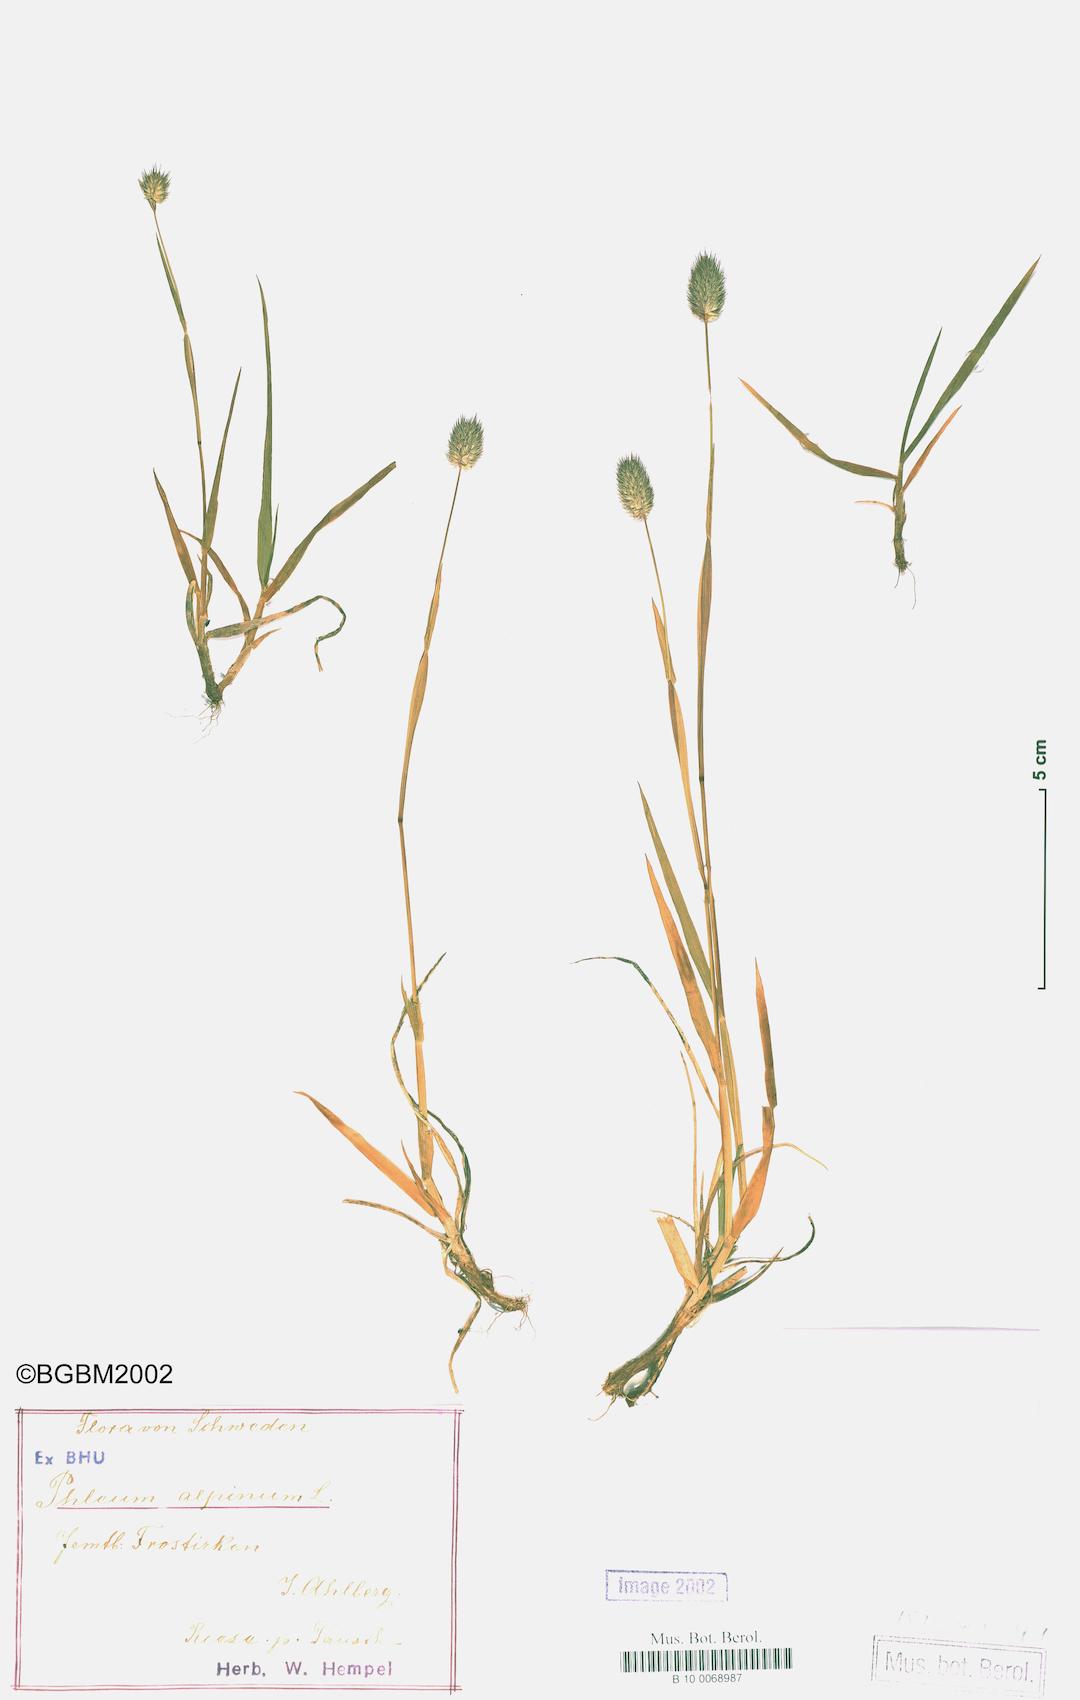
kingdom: Plantae
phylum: Tracheophyta
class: Liliopsida
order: Poales
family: Poaceae
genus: Phleum
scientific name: Phleum alpinum
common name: Alpine cat's-tail
